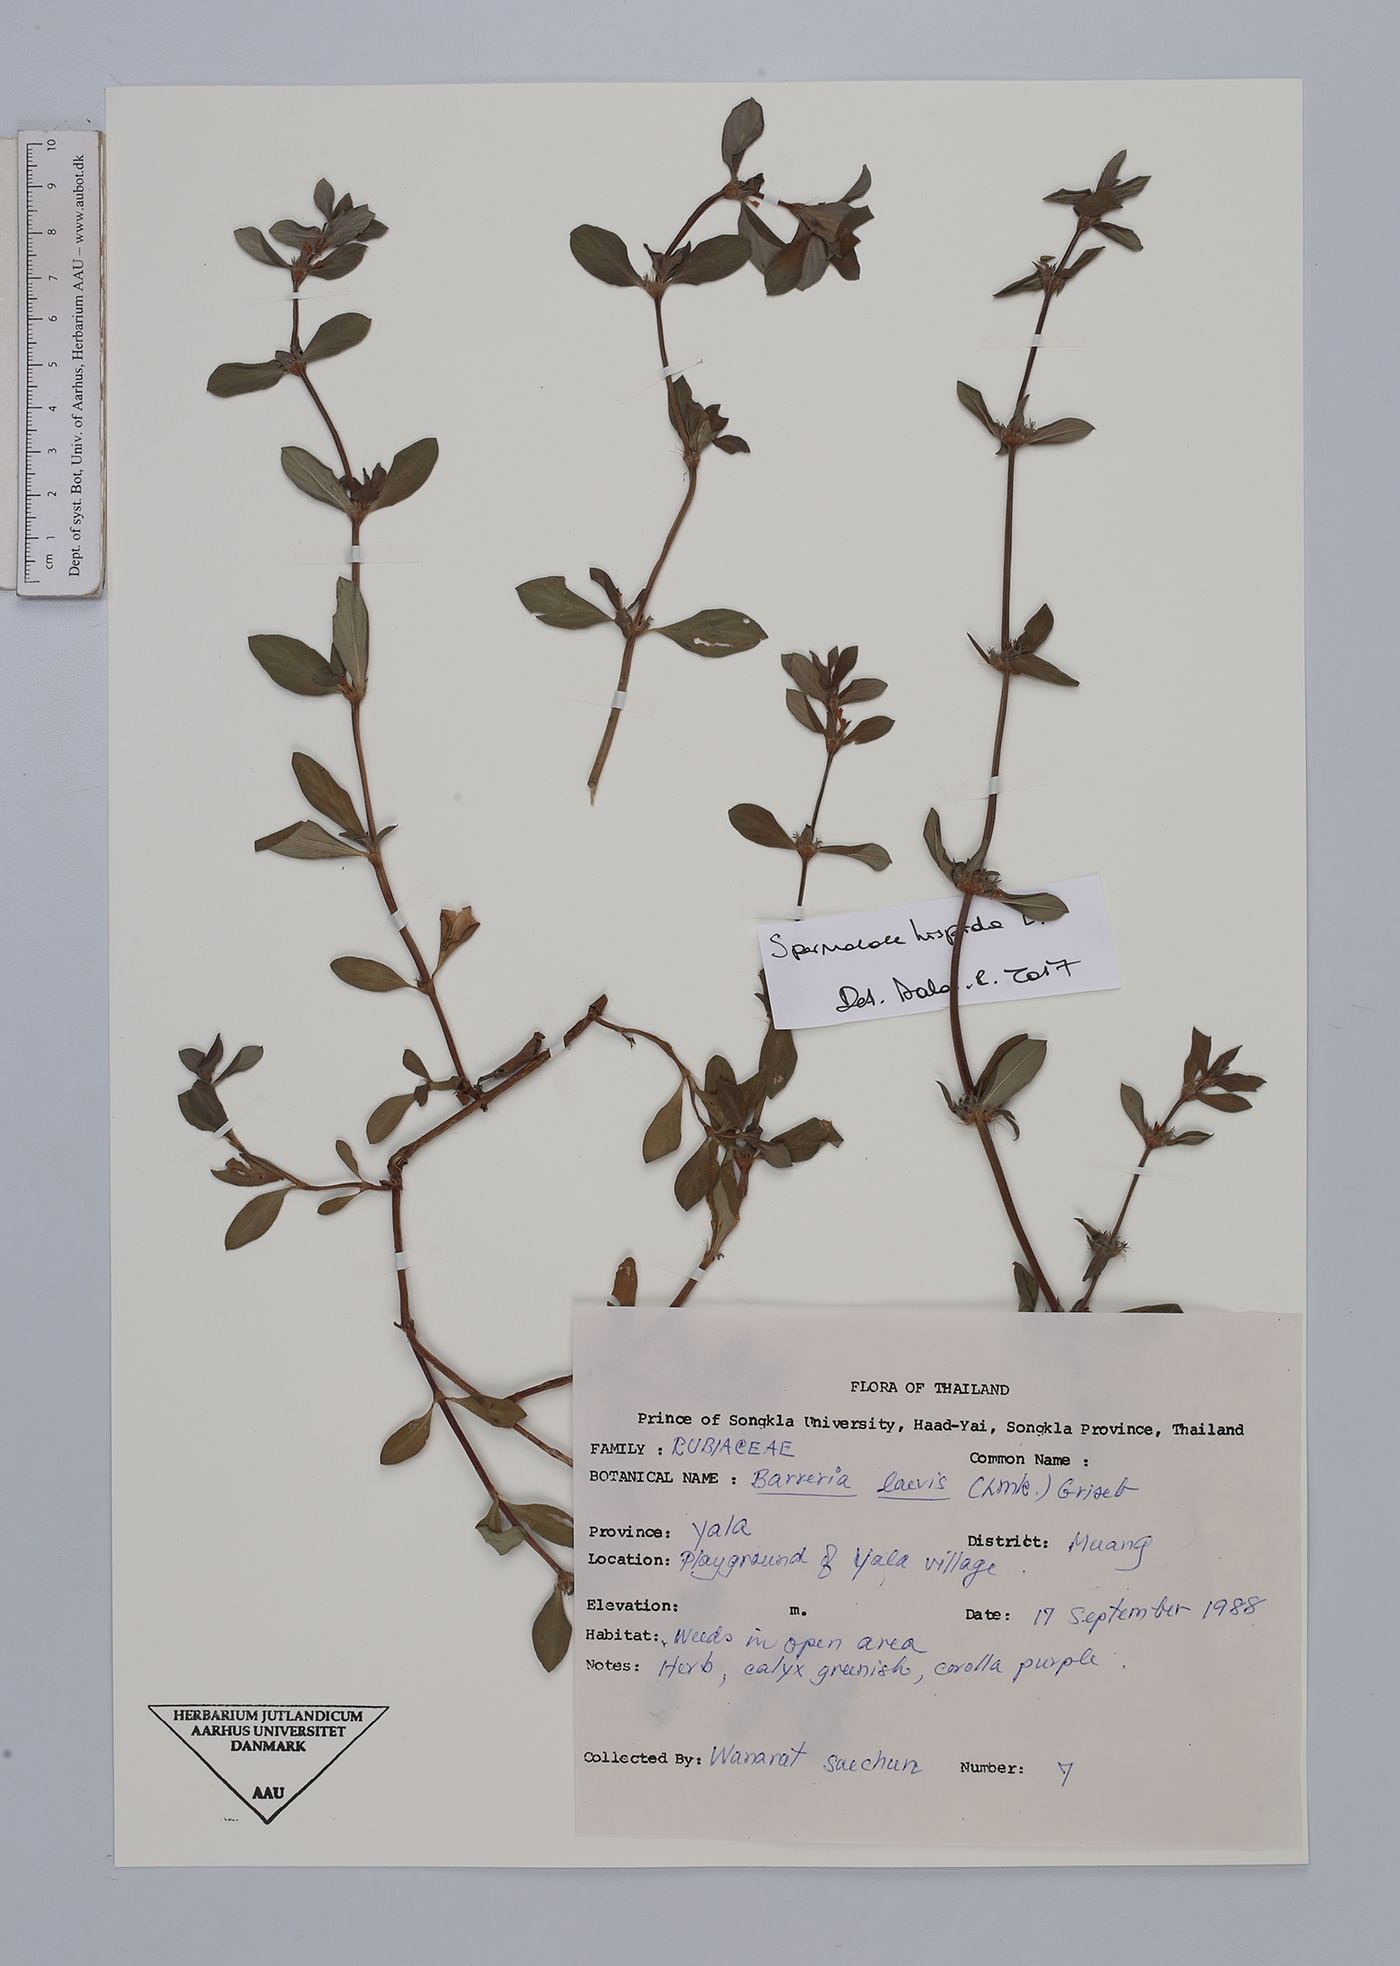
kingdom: Plantae
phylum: Tracheophyta
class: Magnoliopsida
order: Gentianales
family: Rubiaceae
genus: Spermacoce
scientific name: Spermacoce hispida
